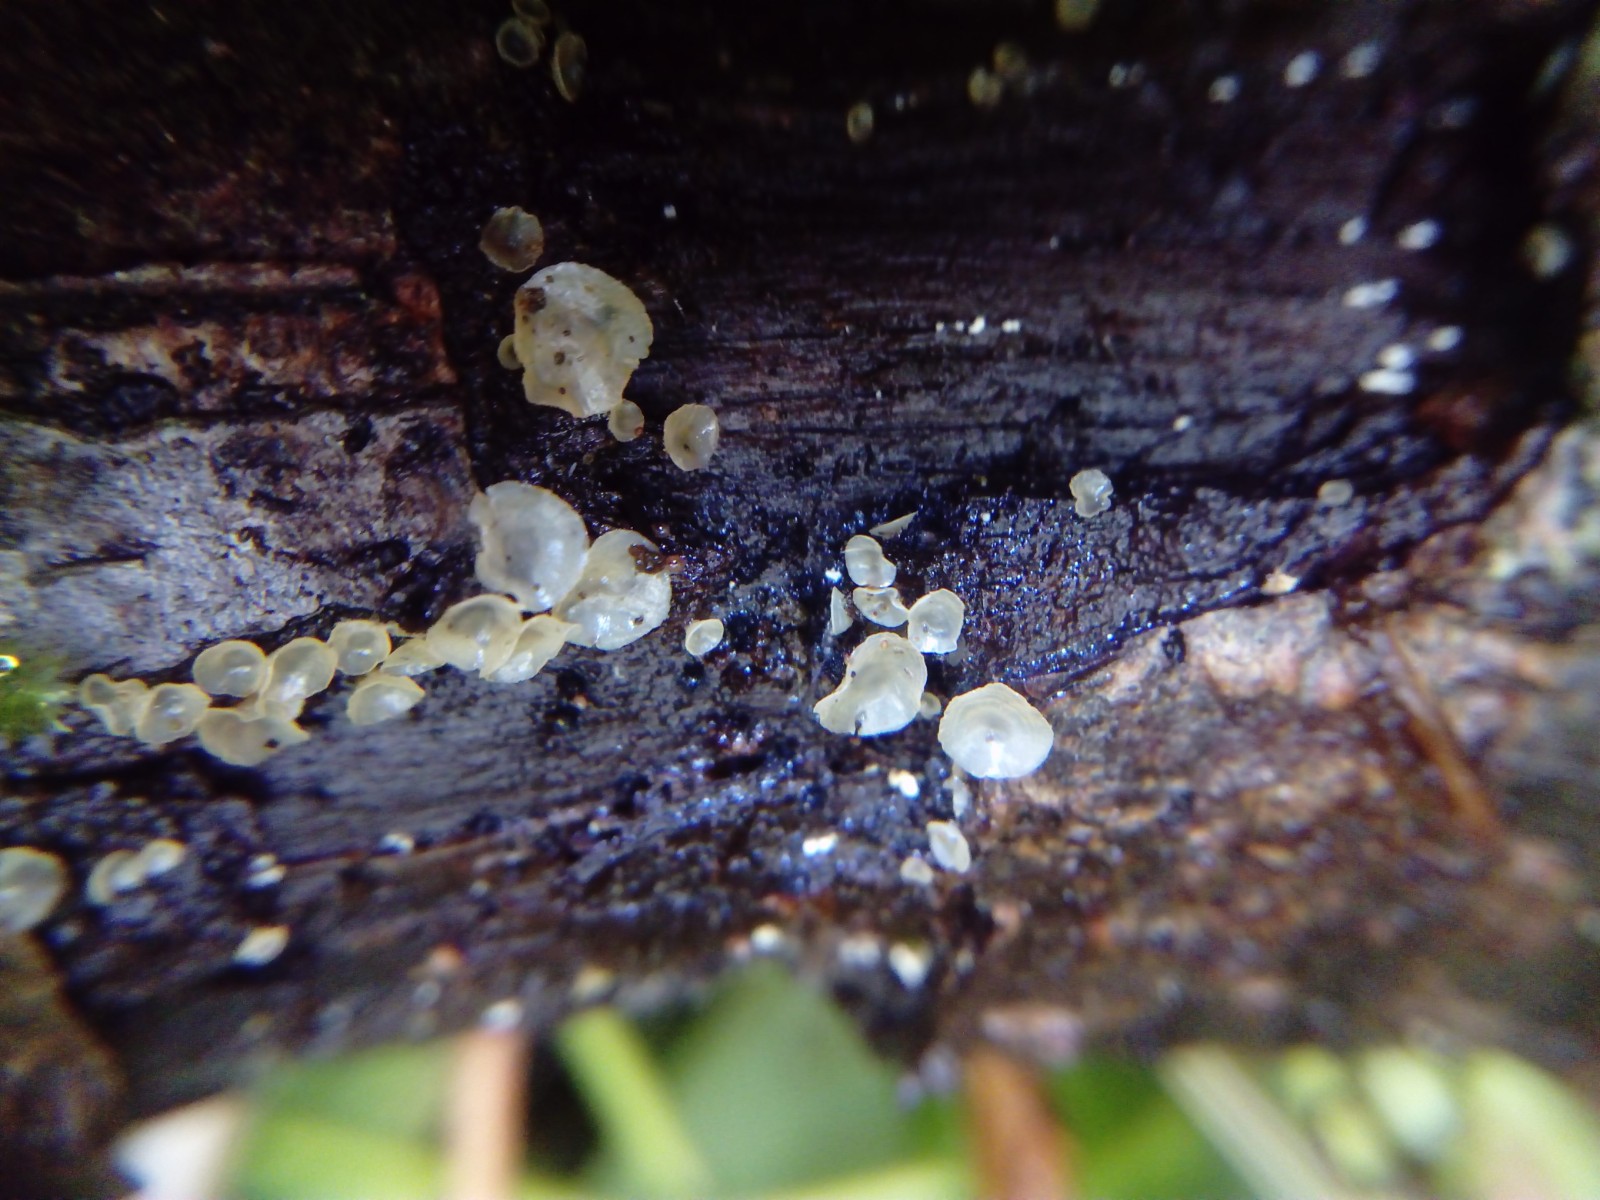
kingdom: Fungi
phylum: Ascomycota
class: Orbiliomycetes
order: Orbiliales
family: Orbiliaceae
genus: Orbilia
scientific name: Orbilia
